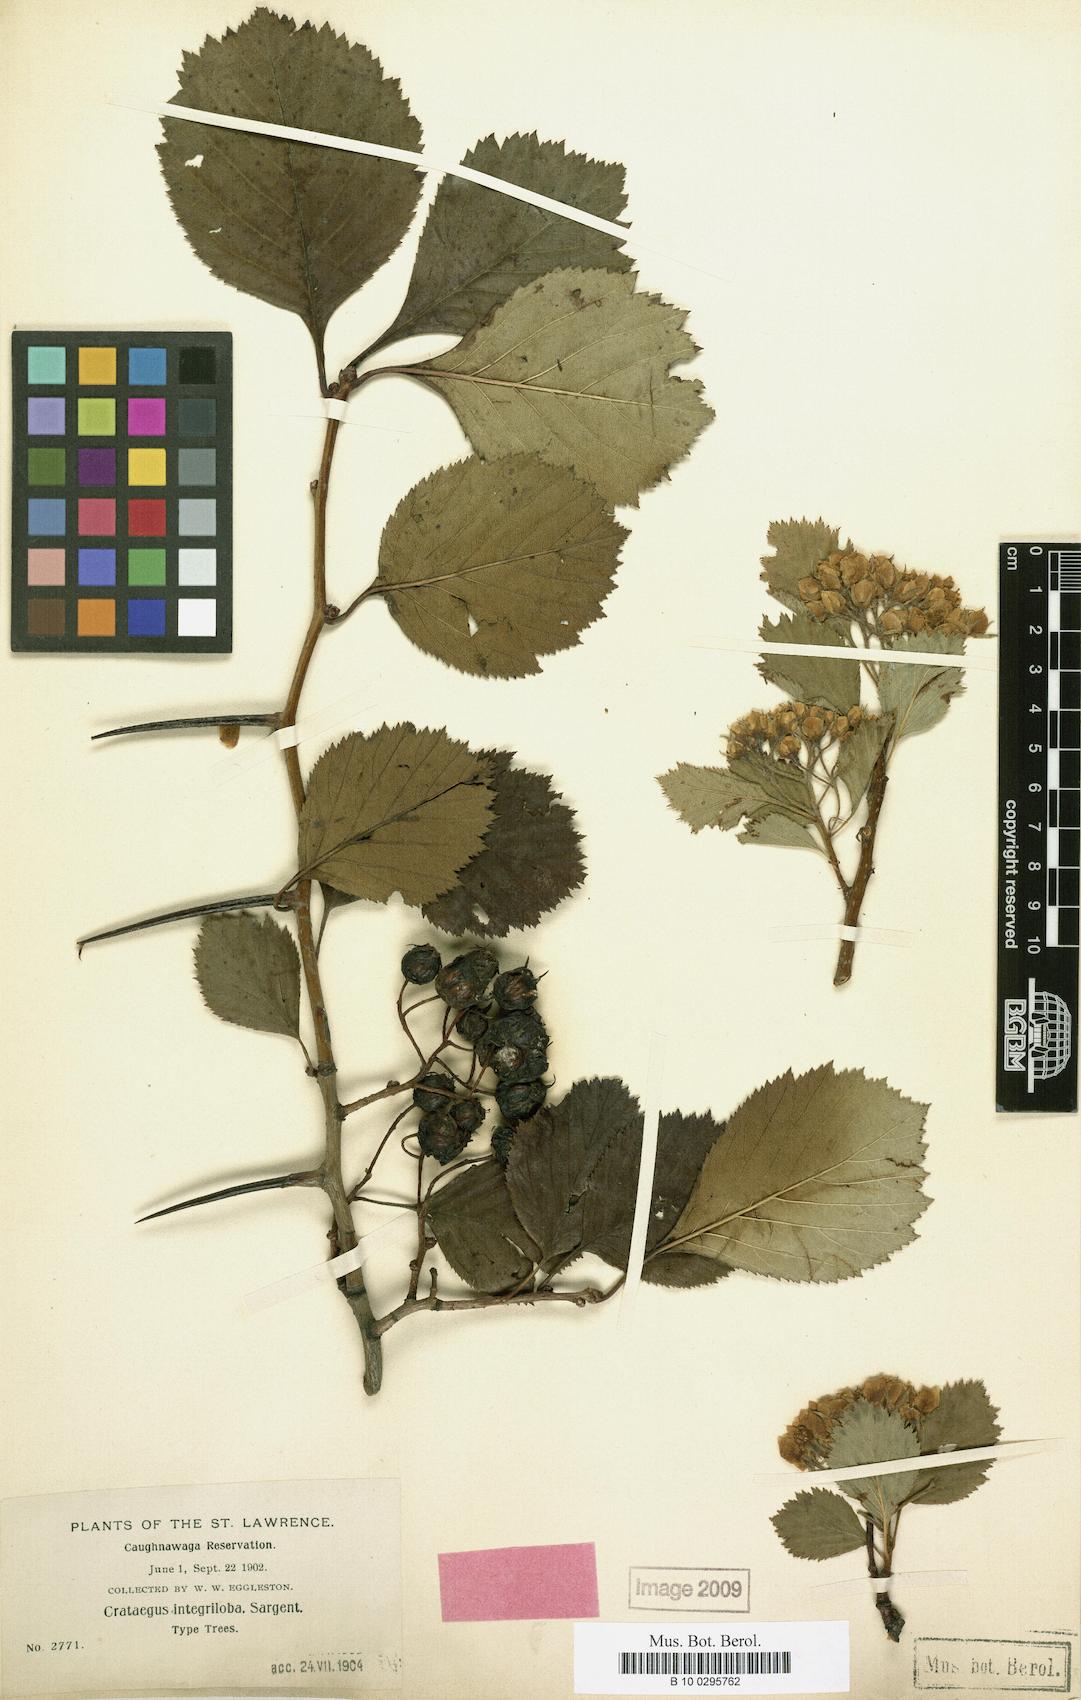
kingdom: Plantae
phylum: Tracheophyta
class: Magnoliopsida
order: Rosales
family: Rosaceae
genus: Crataegus
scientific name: Crataegus succulenta
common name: Fleshy hawthorn
